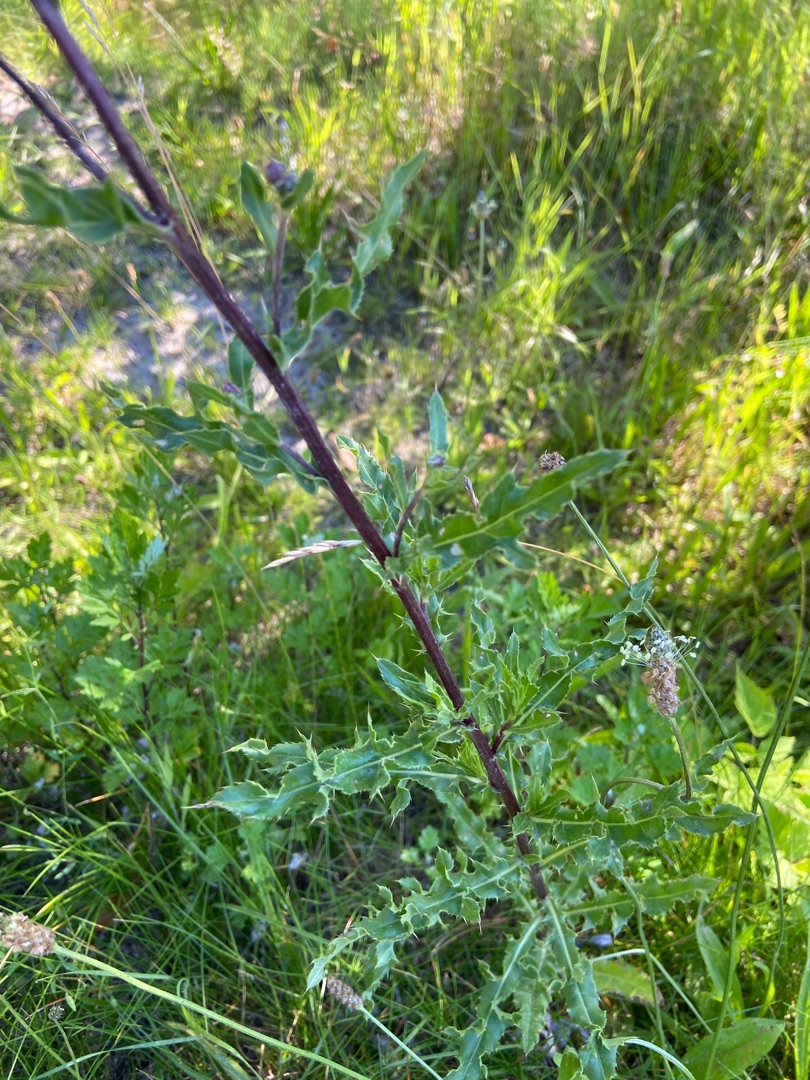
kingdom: Plantae
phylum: Tracheophyta
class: Magnoliopsida
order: Asterales
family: Asteraceae
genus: Cirsium
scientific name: Cirsium arvense
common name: Ager-tidsel
